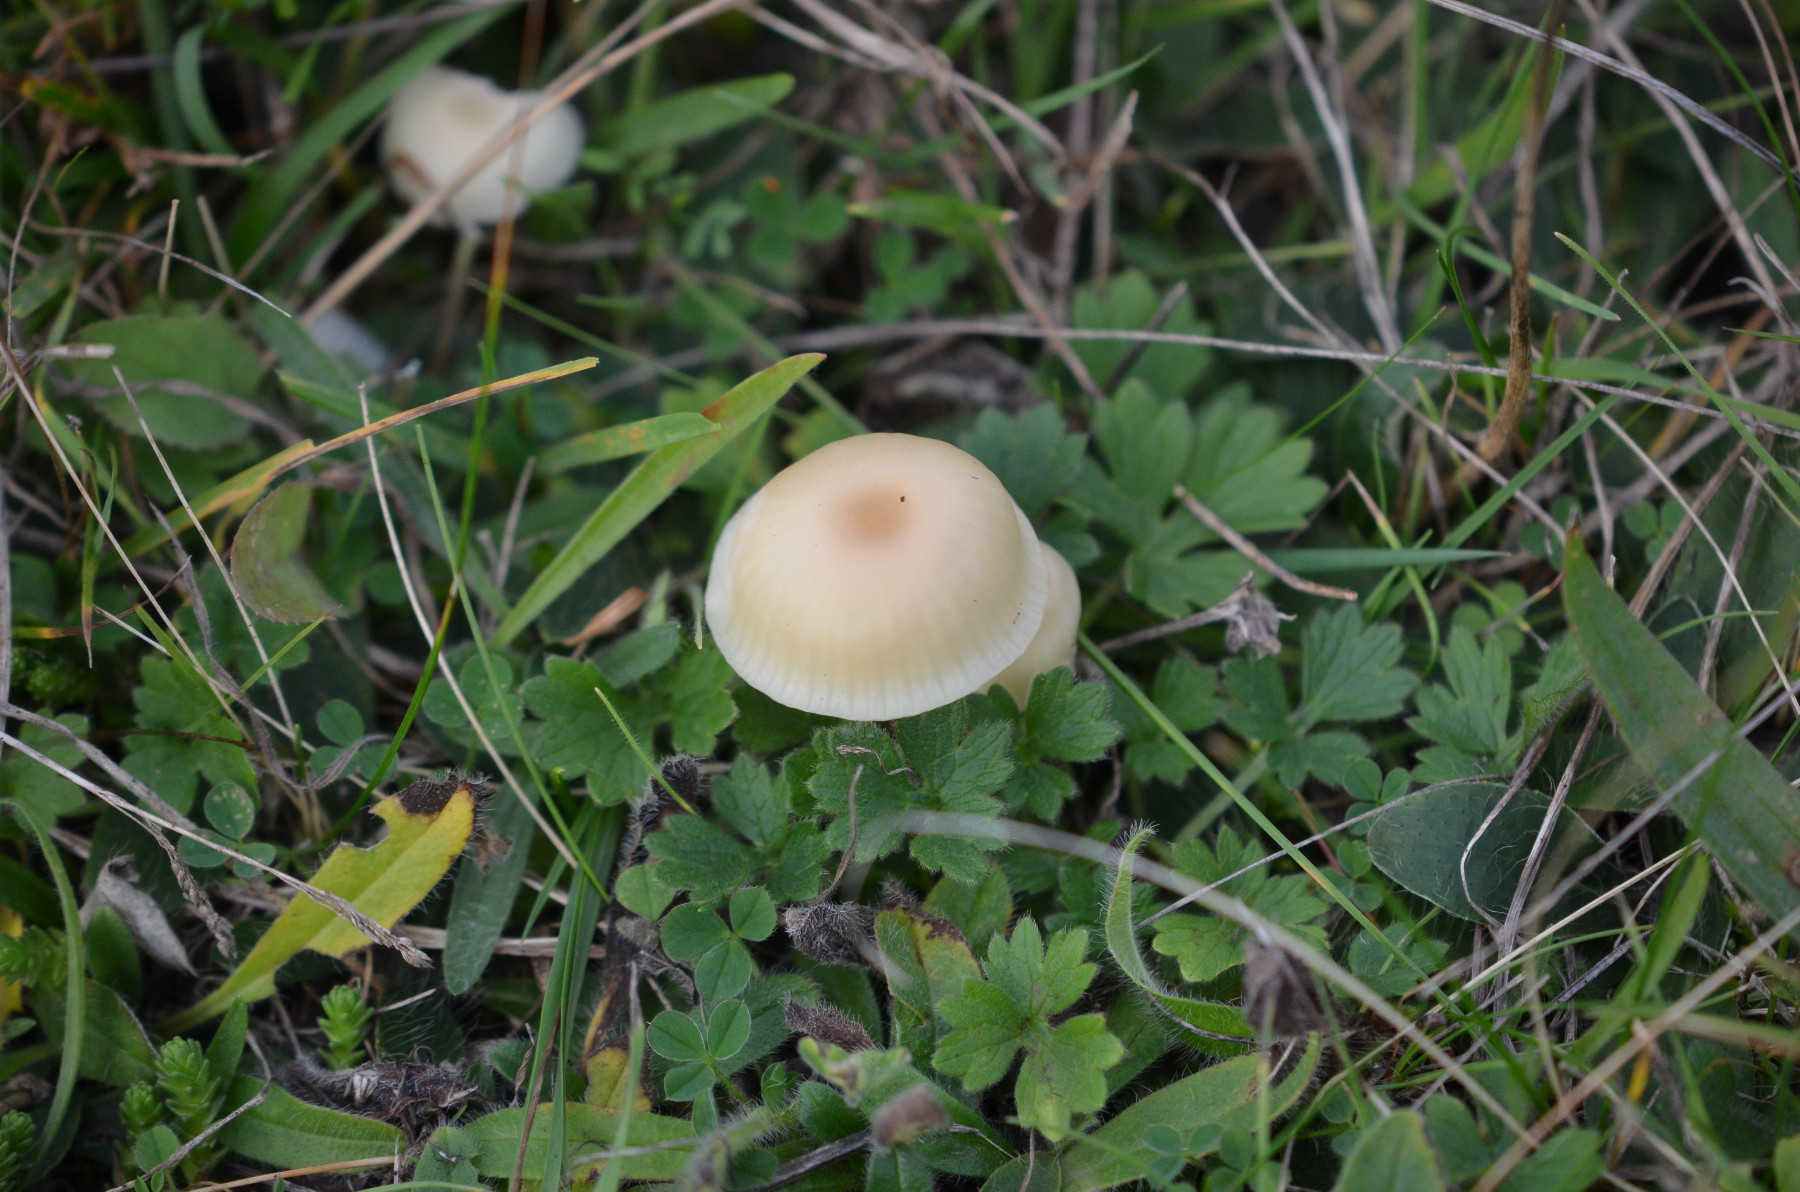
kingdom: Fungi
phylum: Basidiomycota
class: Agaricomycetes
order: Agaricales
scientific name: Agaricales
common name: champignonordenen
